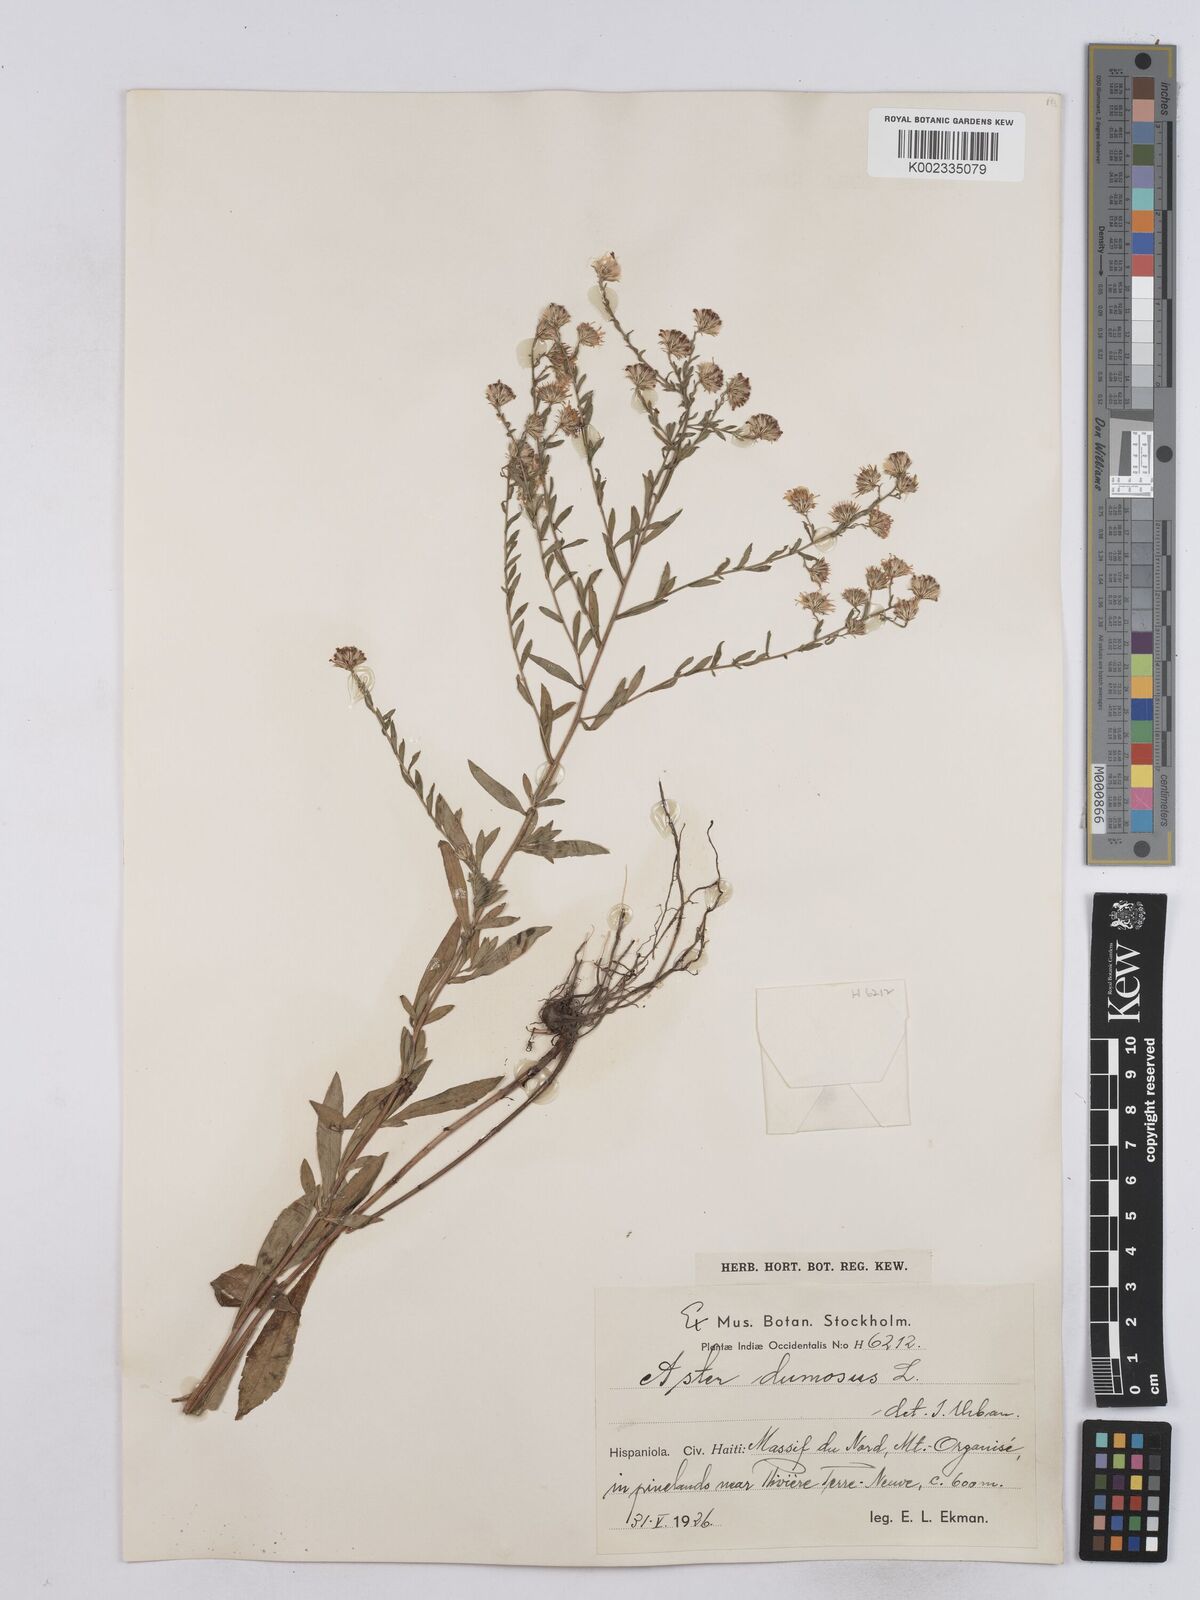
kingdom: Plantae
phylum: Tracheophyta
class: Magnoliopsida
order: Asterales
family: Asteraceae
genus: Symphyotrichum
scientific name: Symphyotrichum dumosum
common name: Bushy aster
